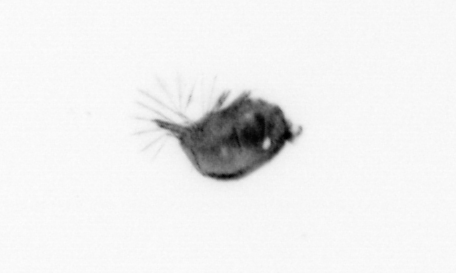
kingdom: Animalia
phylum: Arthropoda
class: Maxillopoda
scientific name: Maxillopoda
